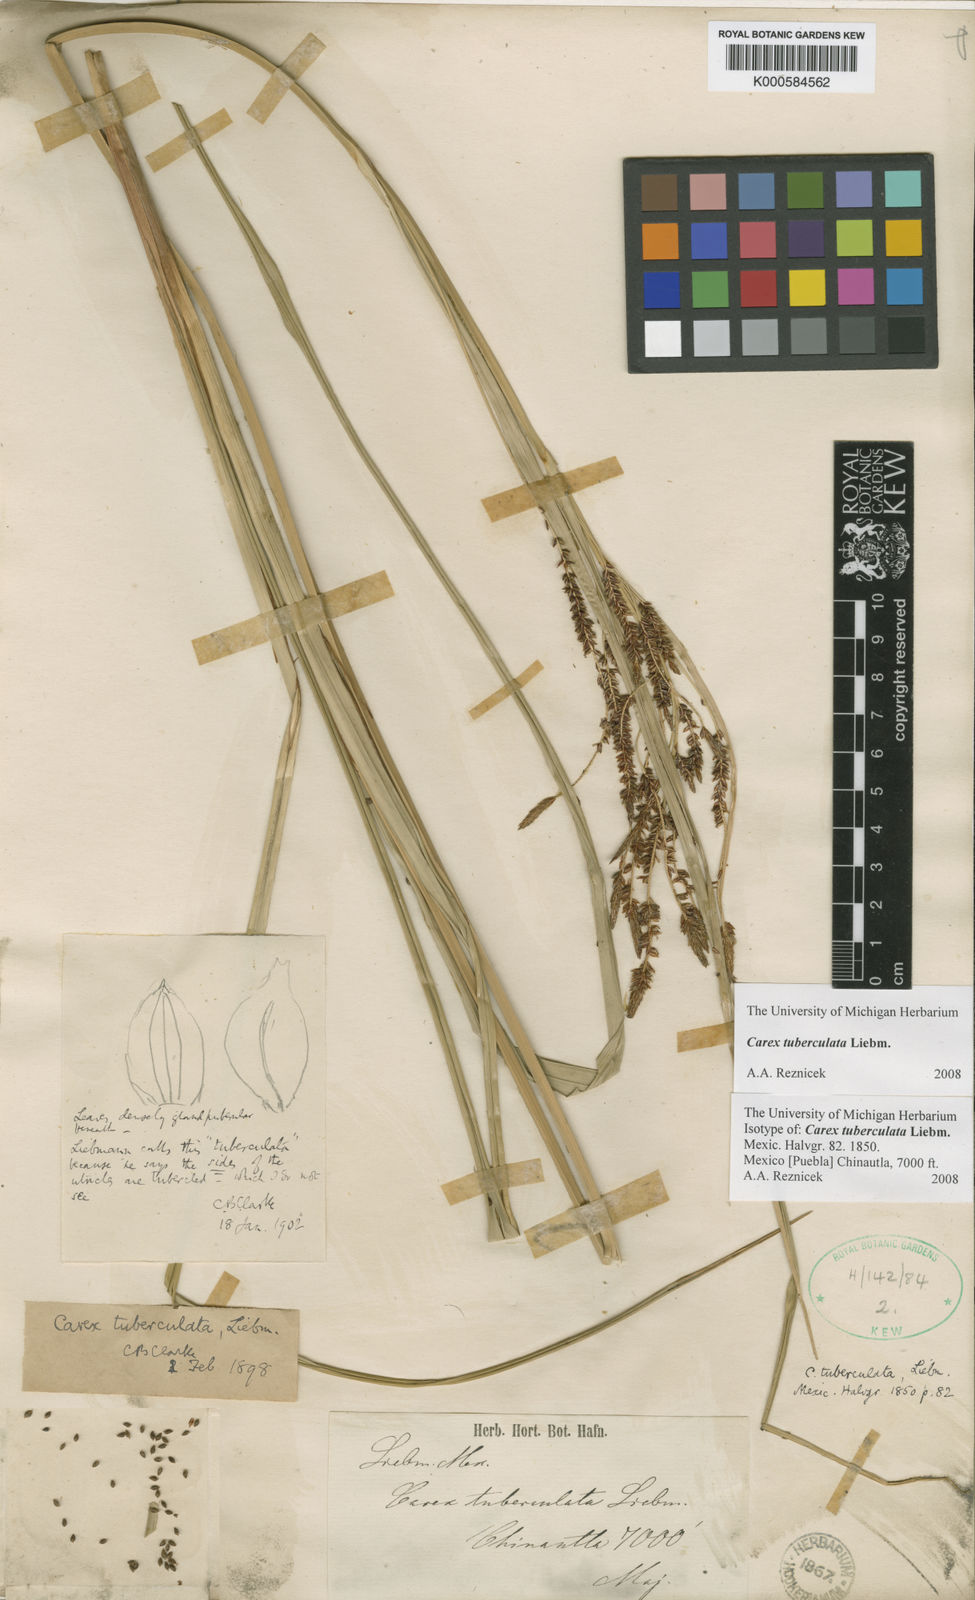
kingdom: Plantae
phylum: Tracheophyta
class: Liliopsida
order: Poales
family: Cyperaceae
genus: Carex
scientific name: Carex tuberculata
